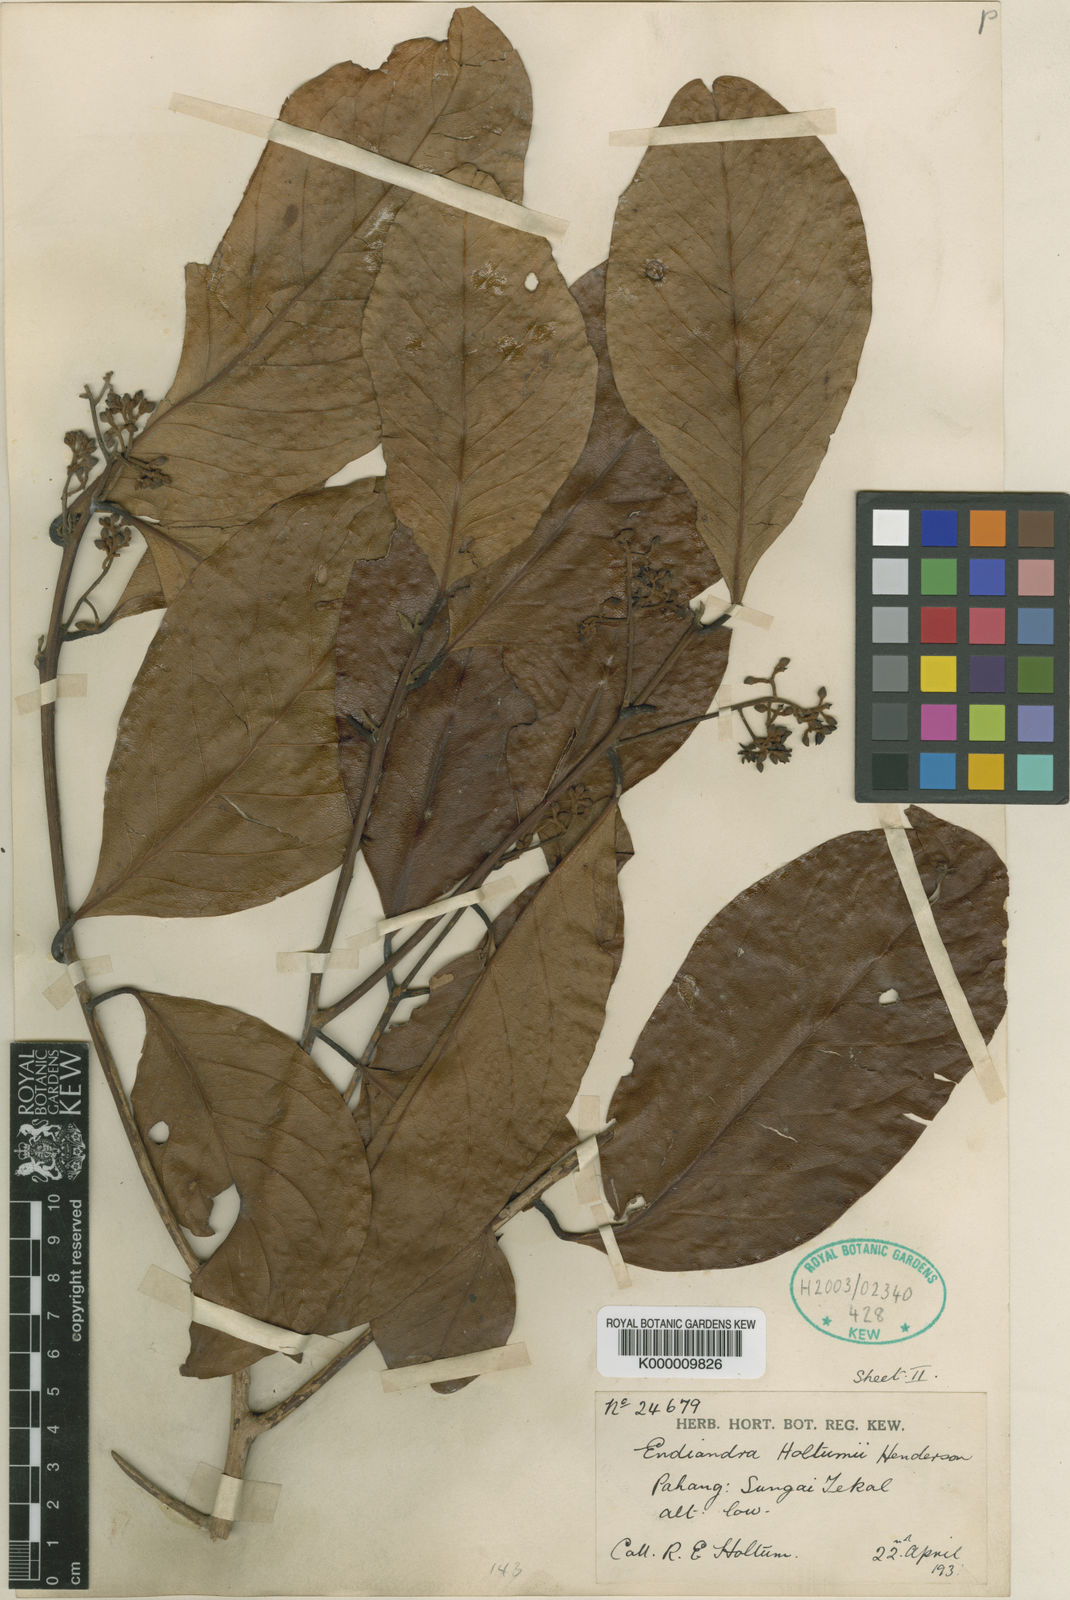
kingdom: Plantae
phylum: Tracheophyta
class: Magnoliopsida
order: Laurales
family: Lauraceae
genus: Endiandra
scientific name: Endiandra holttumii
